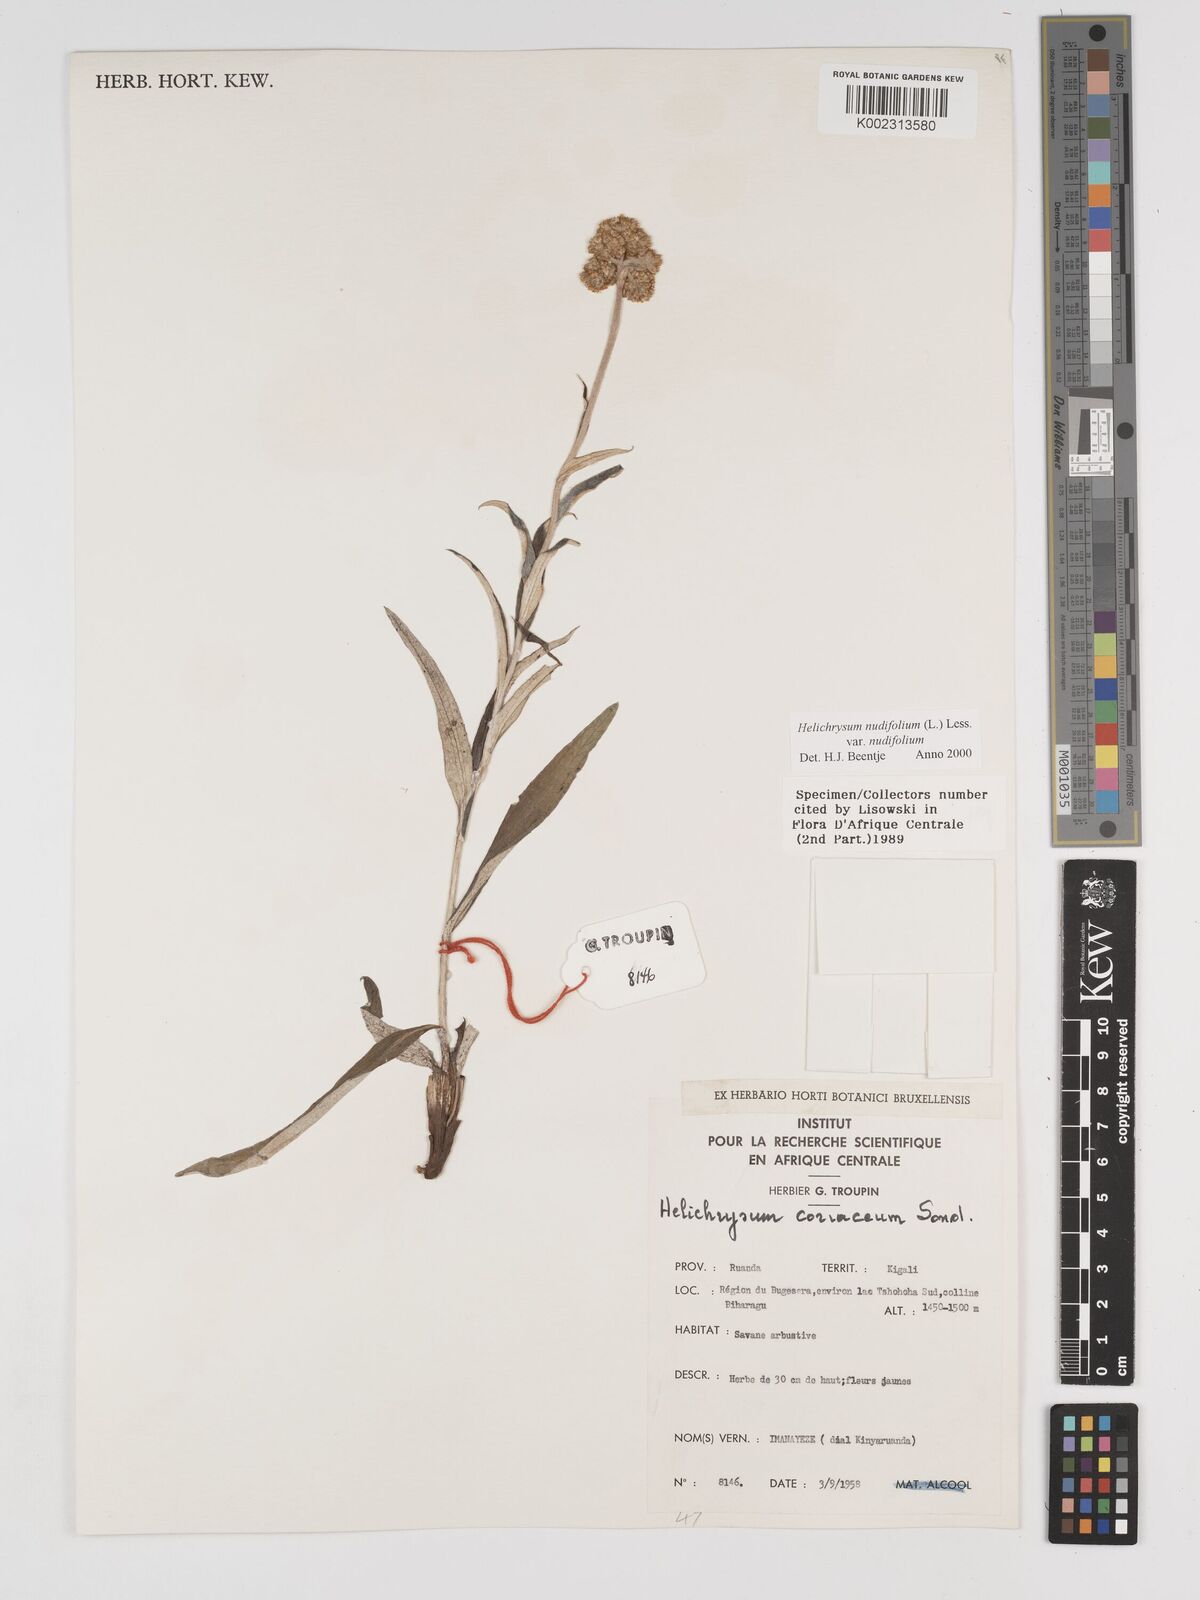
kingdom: Plantae
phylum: Tracheophyta
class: Magnoliopsida
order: Asterales
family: Asteraceae
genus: Helichrysum
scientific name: Helichrysum nudifolium
